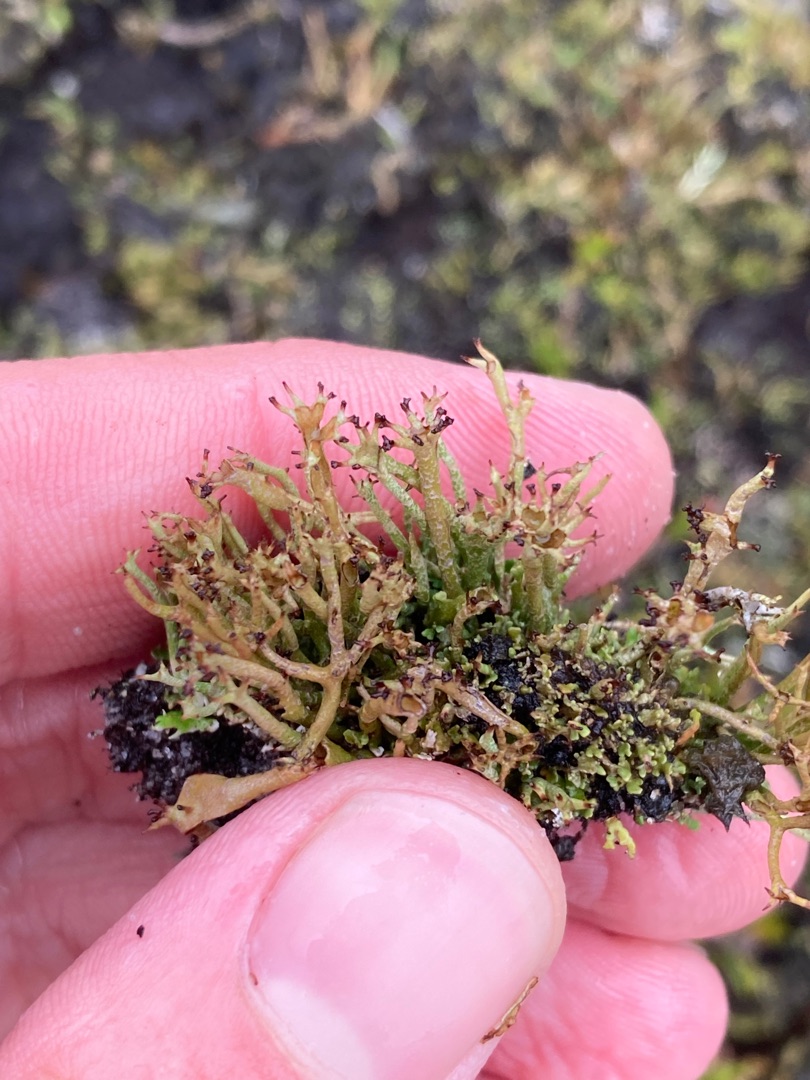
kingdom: Fungi
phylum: Ascomycota
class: Lecanoromycetes
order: Lecanorales
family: Cladoniaceae
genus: Cladonia
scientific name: Cladonia crispata
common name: Takket bægerlav
